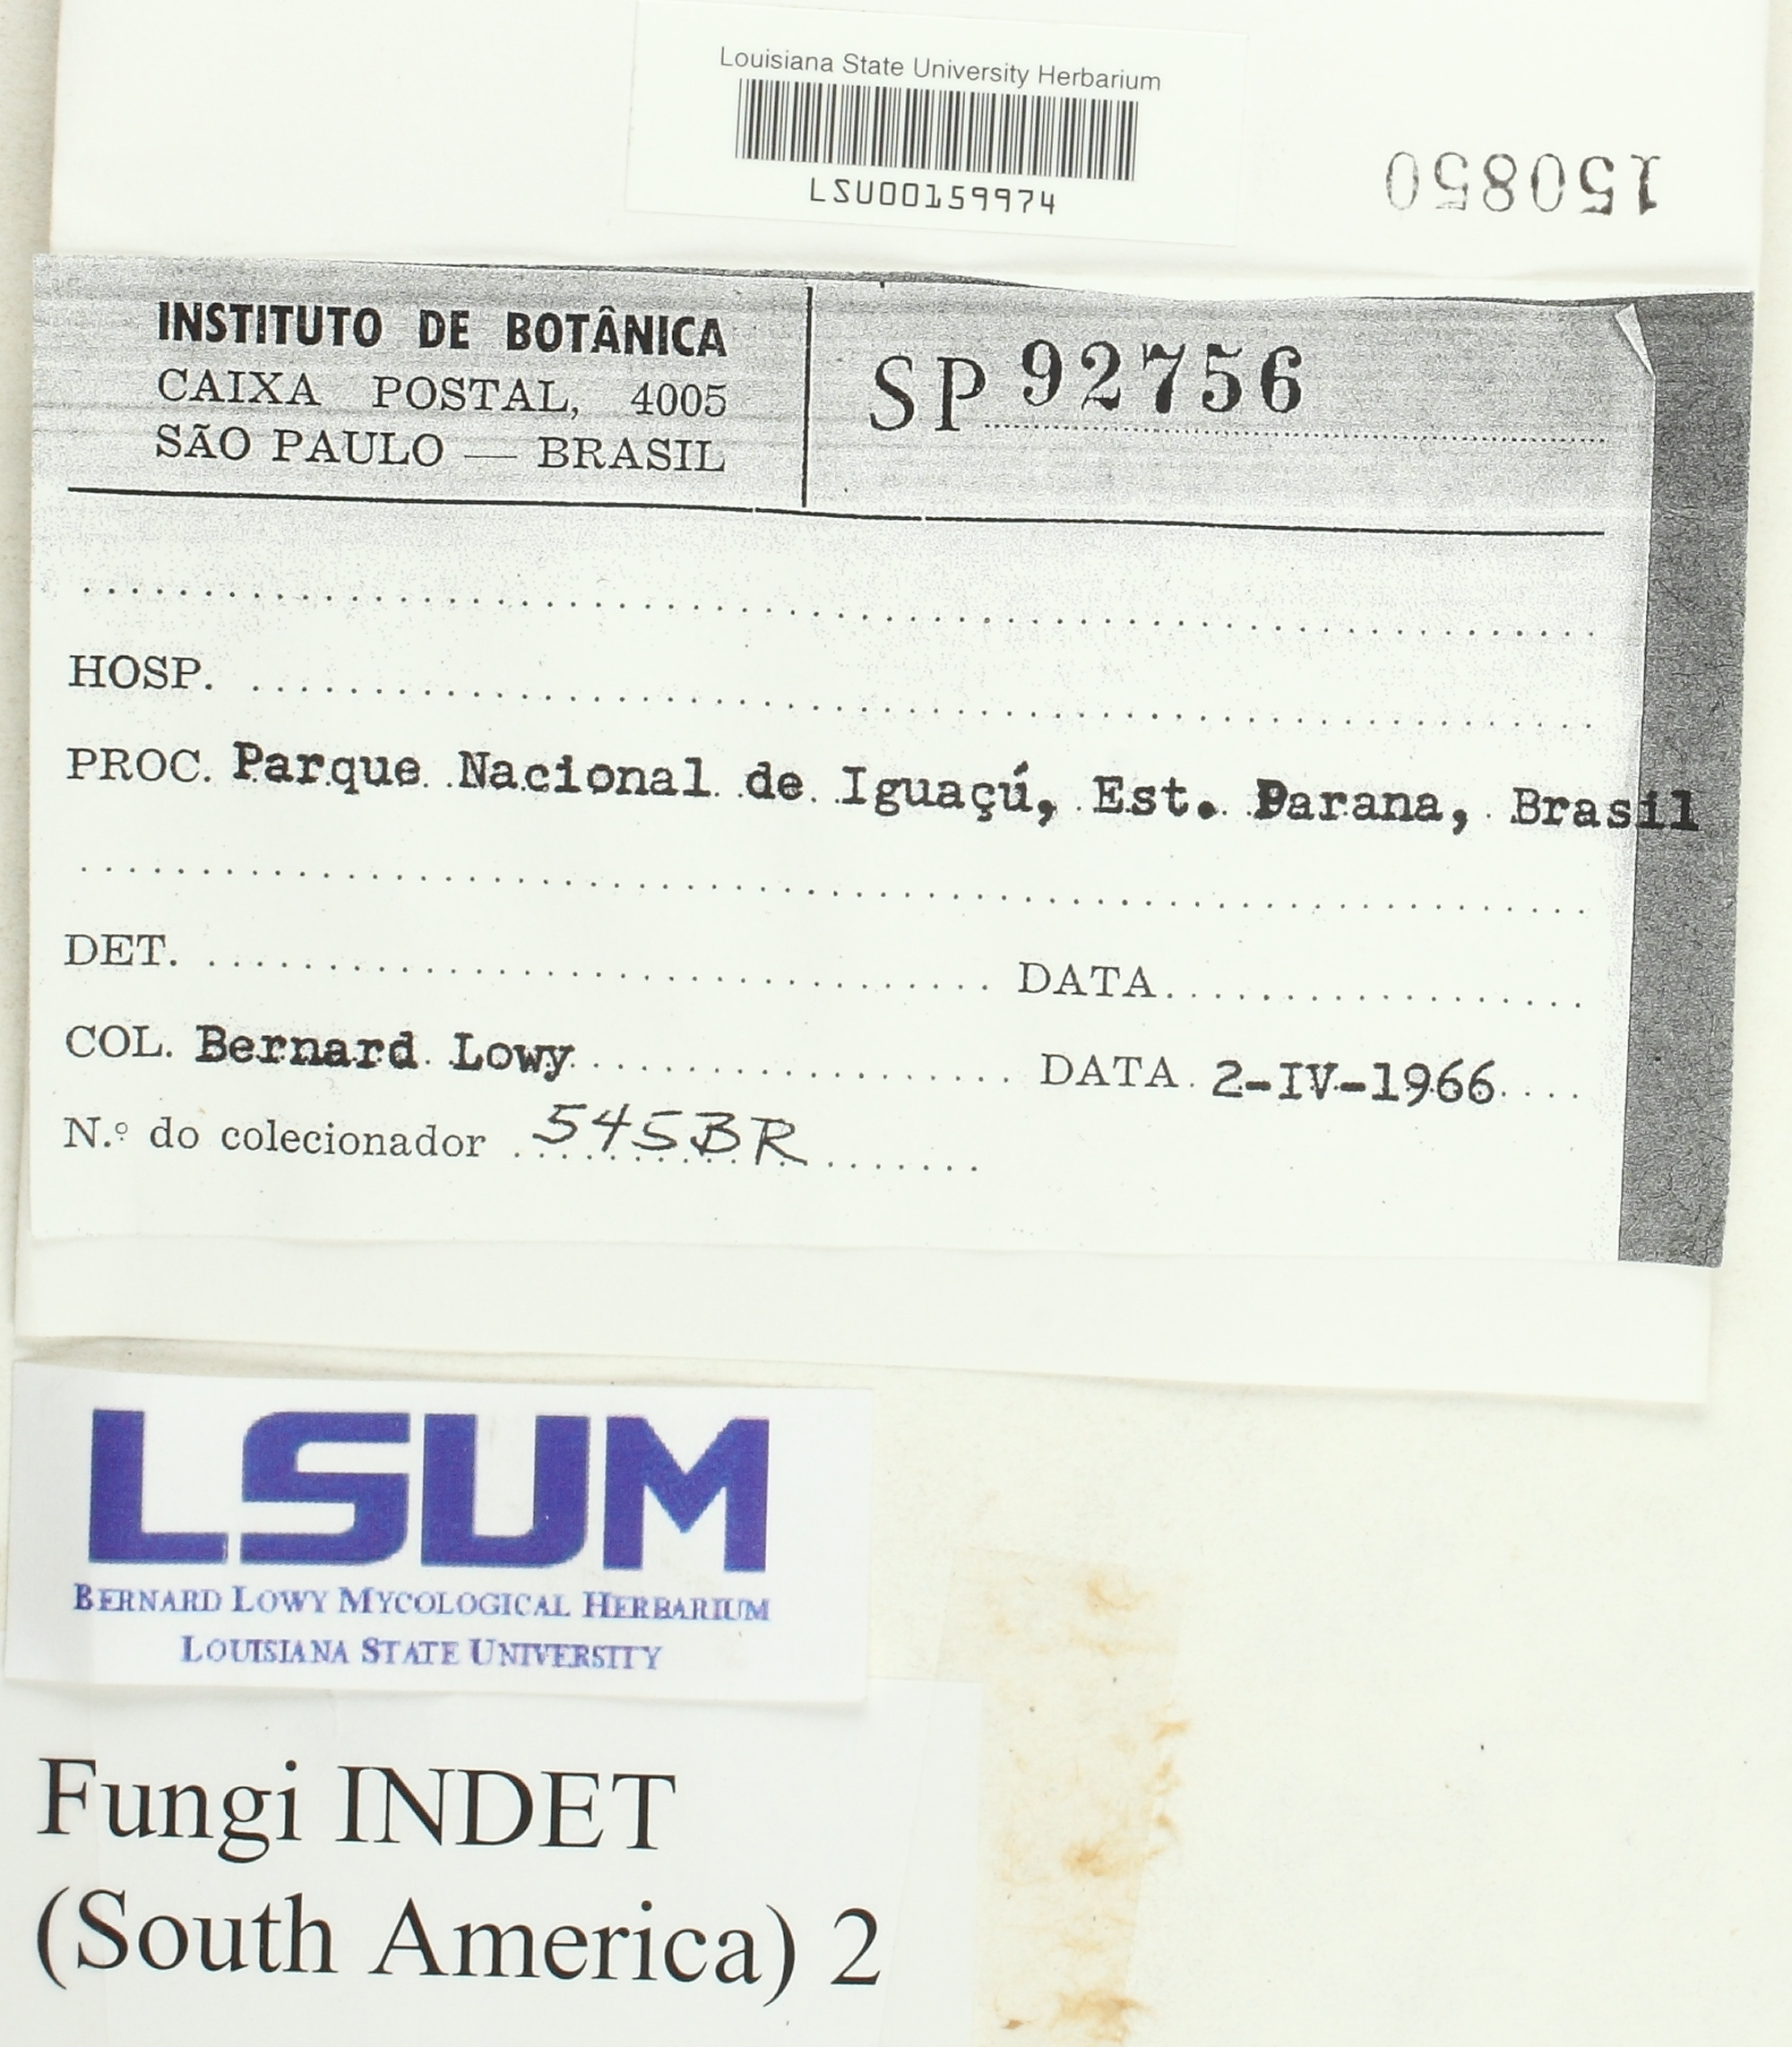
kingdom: Fungi
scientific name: Fungi
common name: Fungi
